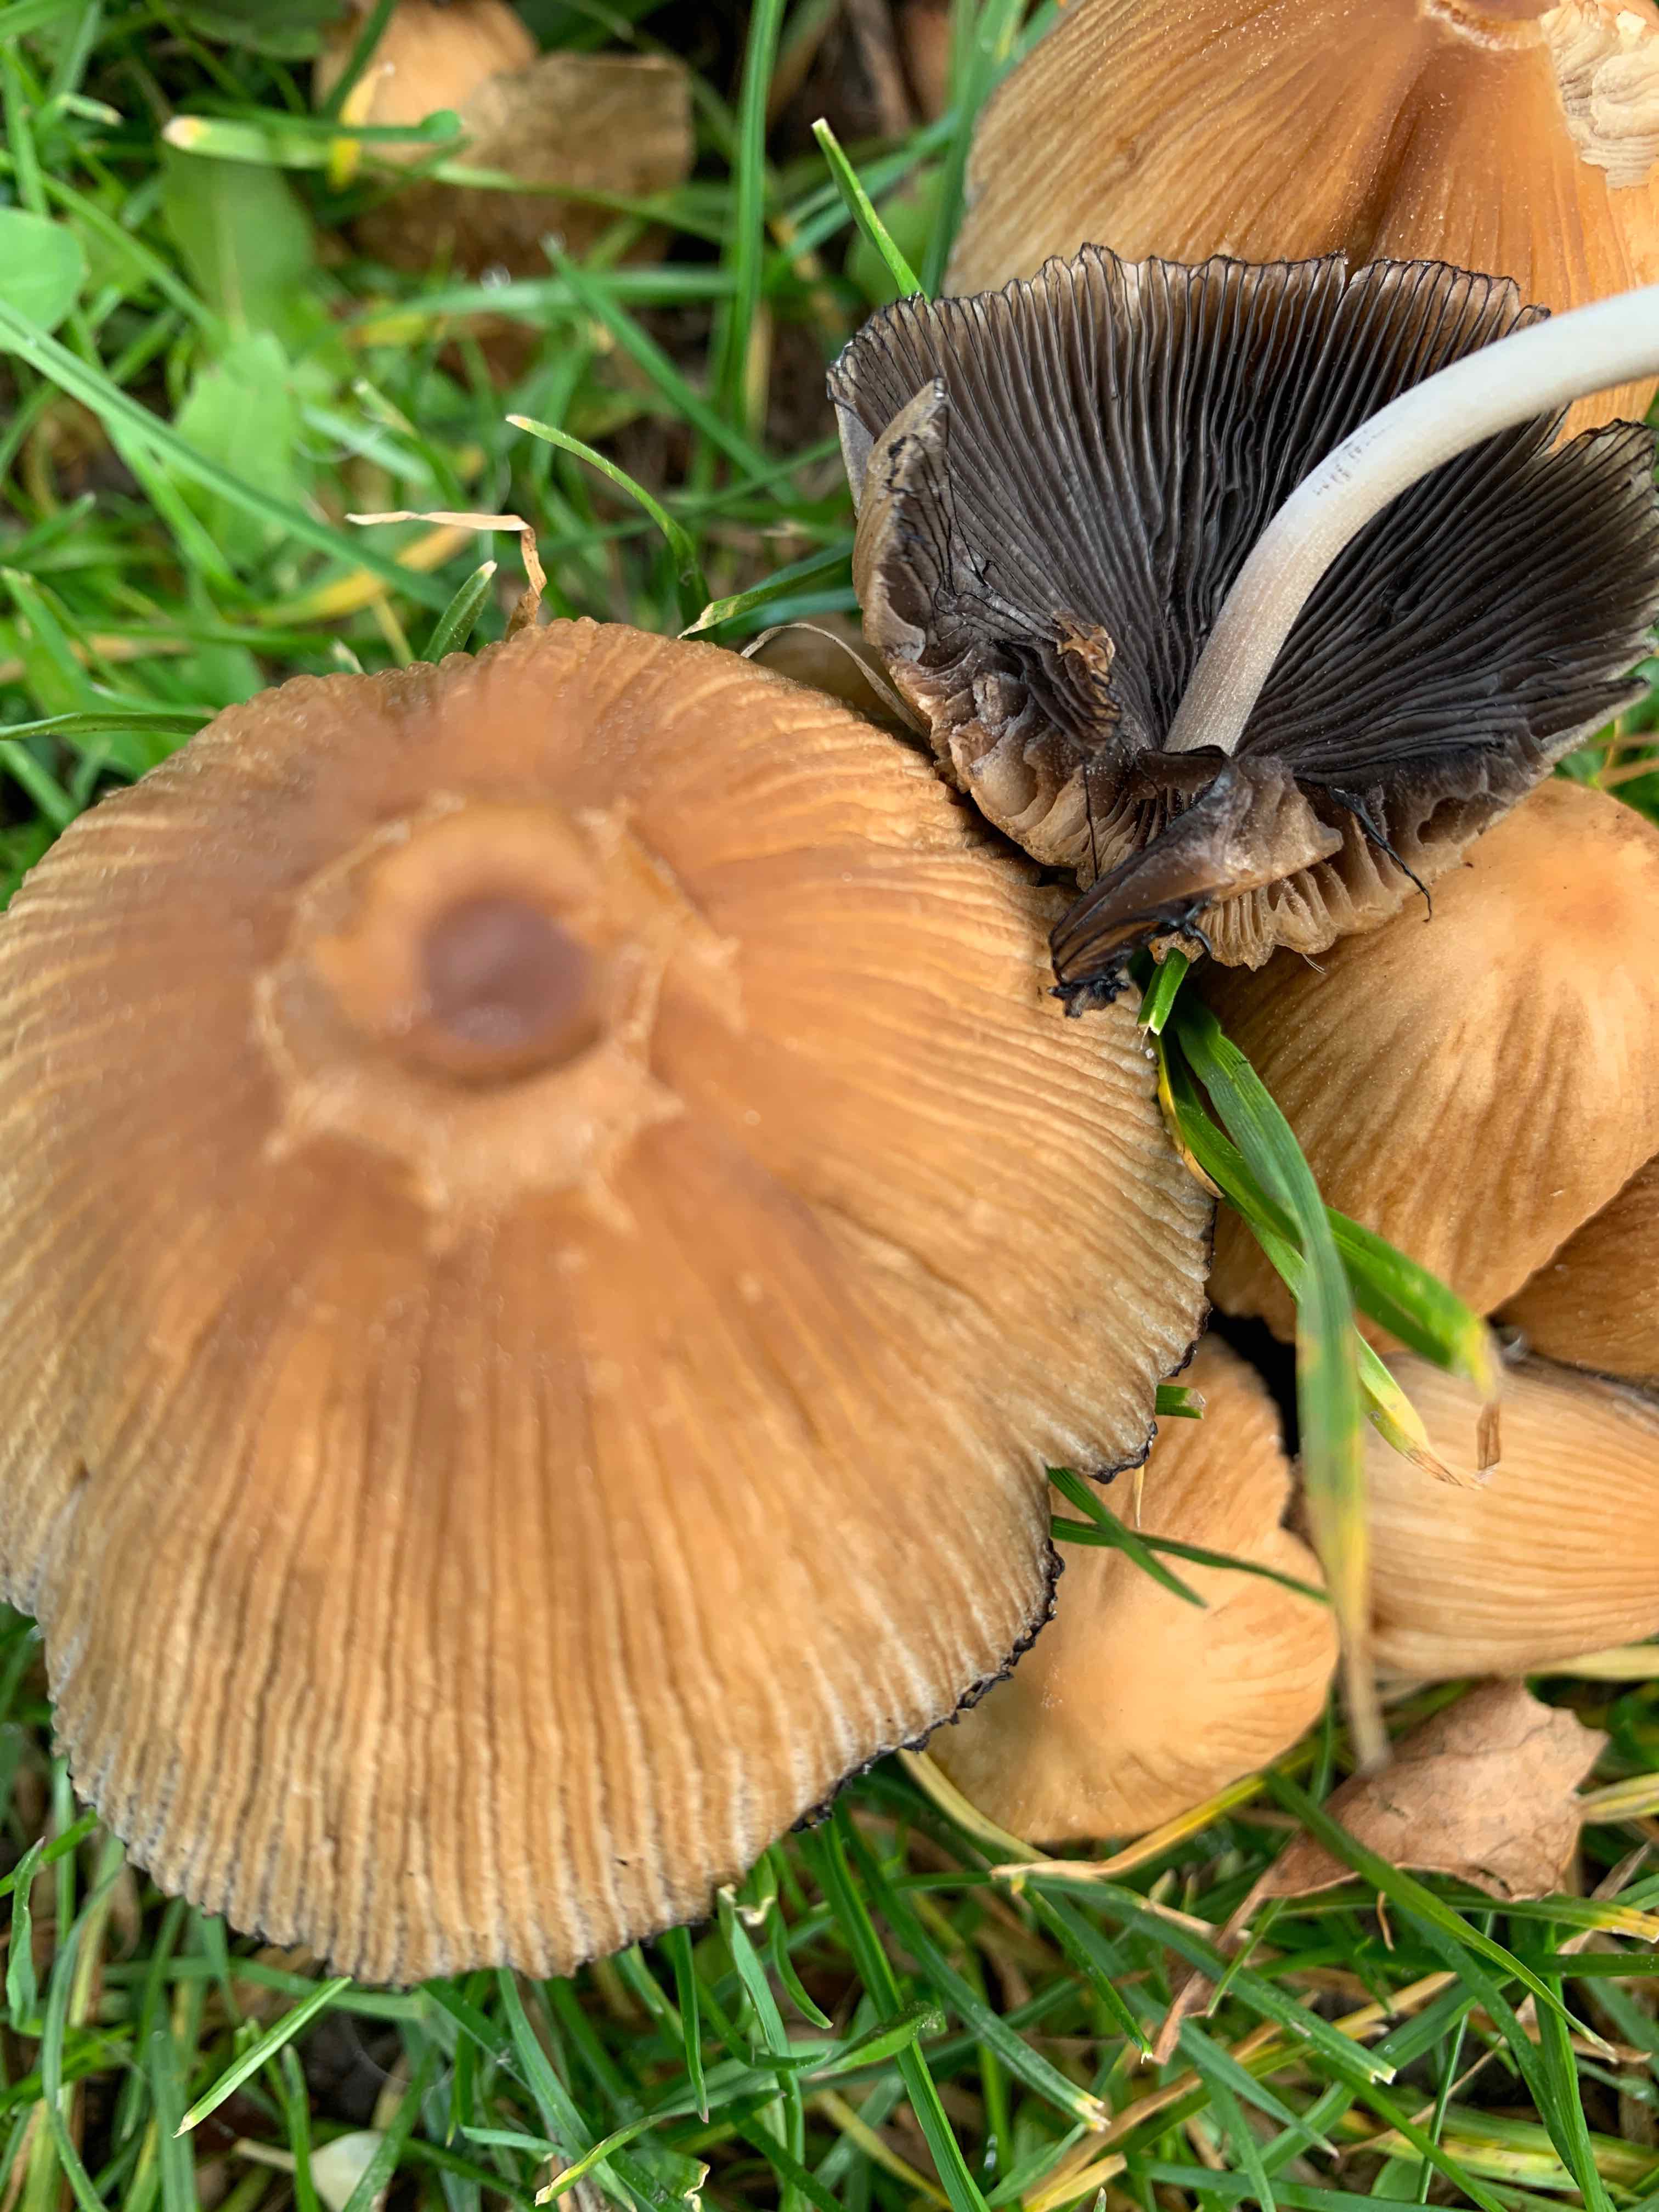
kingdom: Fungi
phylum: Basidiomycota
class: Agaricomycetes
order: Agaricales
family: Psathyrellaceae
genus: Coprinellus
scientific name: Coprinellus micaceus
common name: glimmer-blækhat
